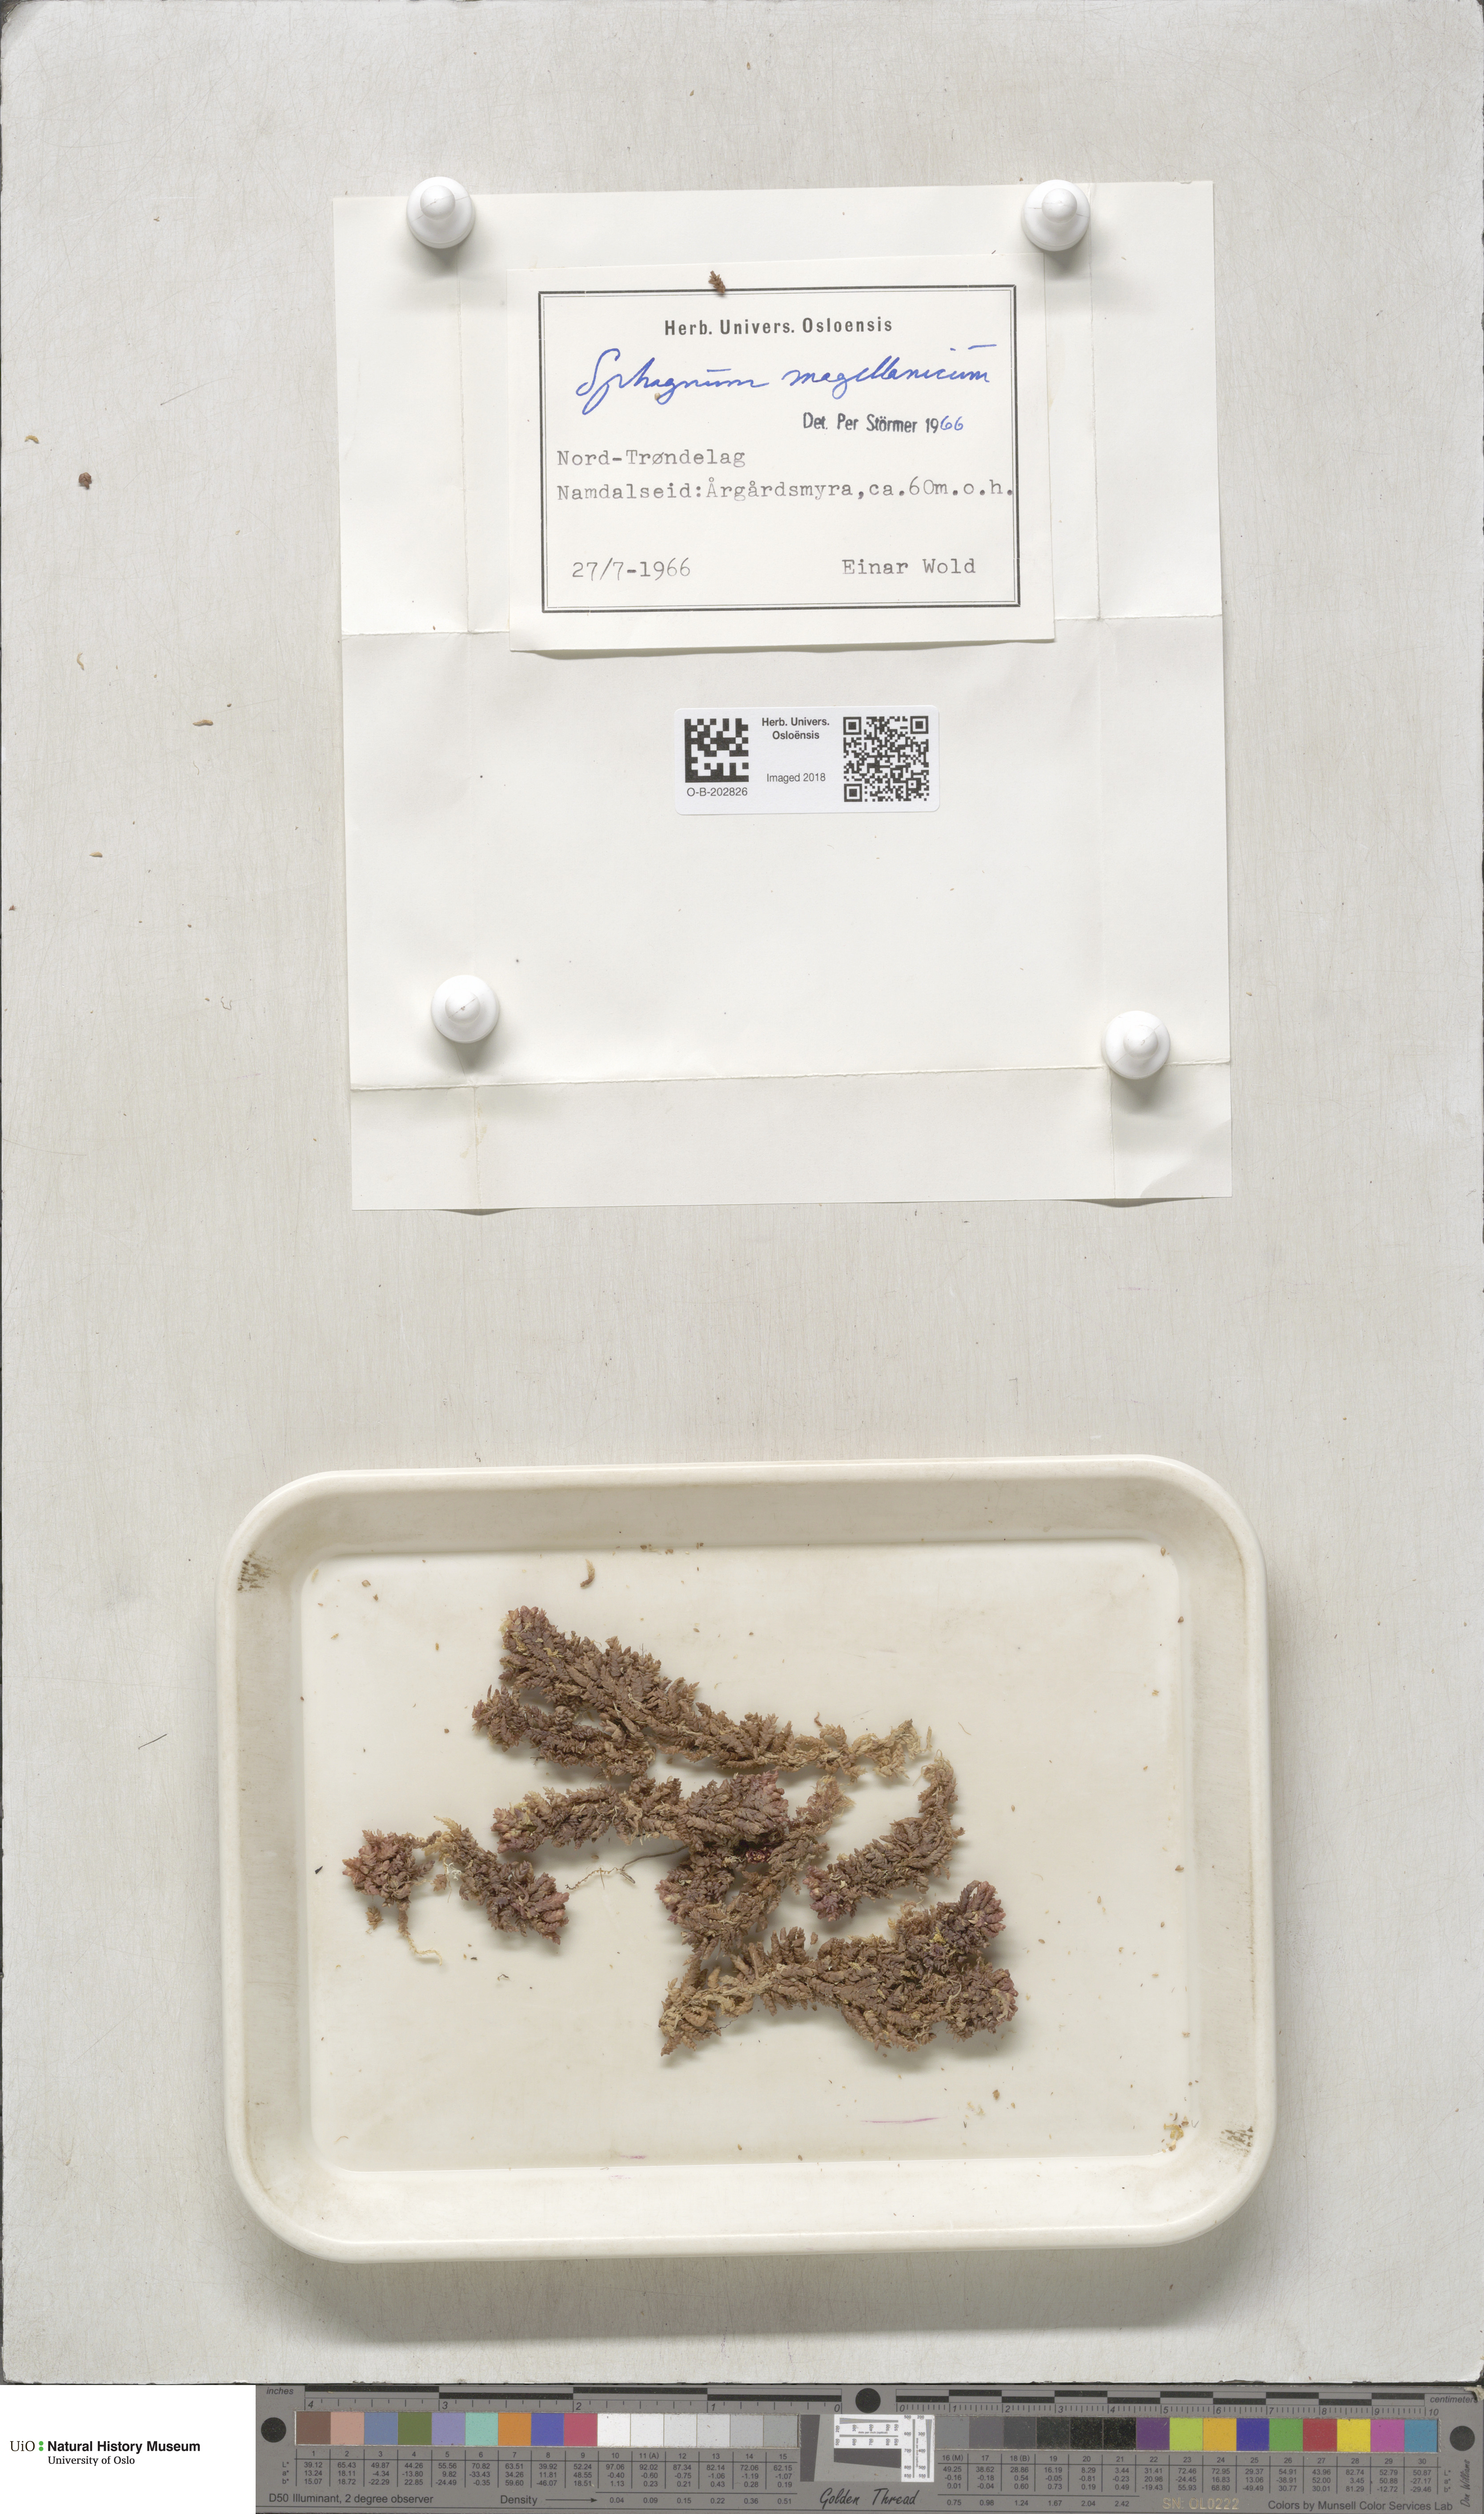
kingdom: Plantae
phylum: Bryophyta
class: Sphagnopsida
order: Sphagnales
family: Sphagnaceae
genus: Sphagnum
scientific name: Sphagnum magellanicum
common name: Magellan's peat moss
